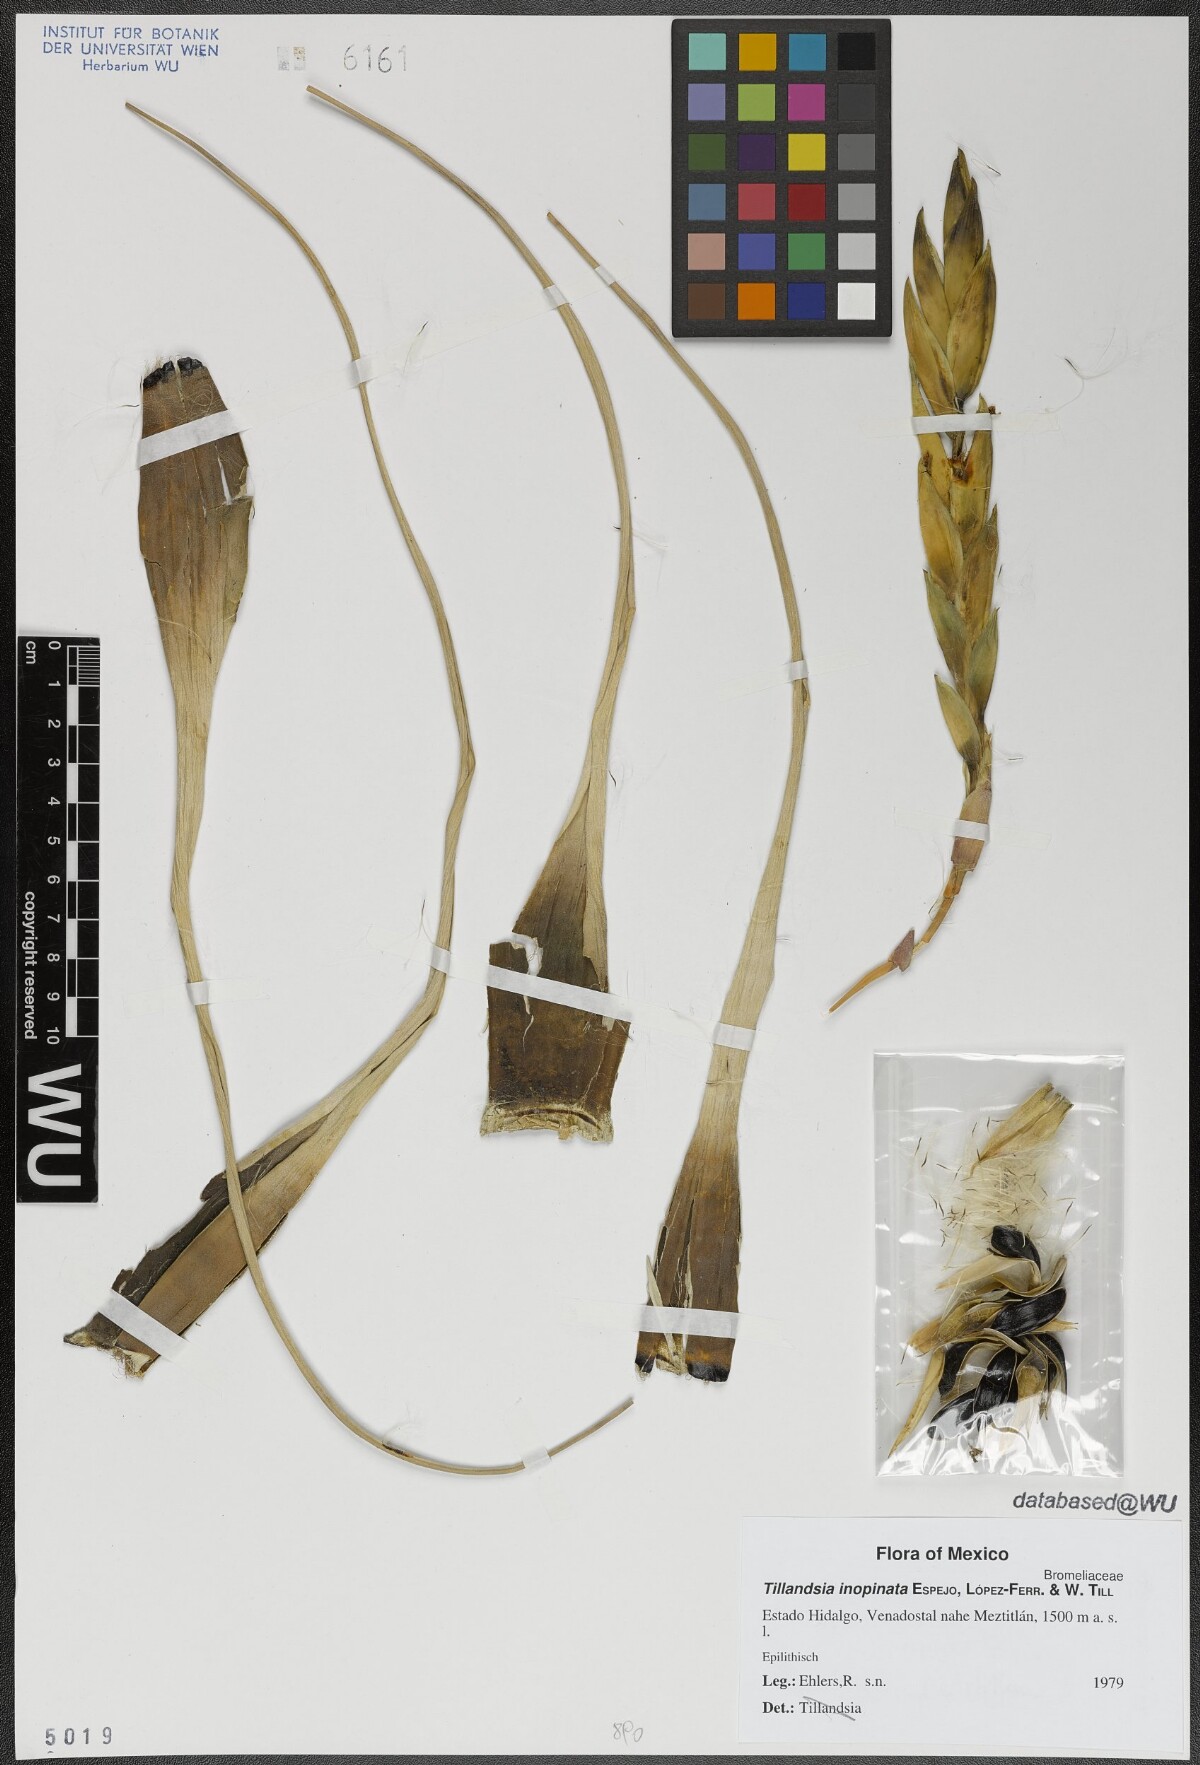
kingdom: Plantae
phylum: Tracheophyta
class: Liliopsida
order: Poales
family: Bromeliaceae
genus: Tillandsia
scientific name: Tillandsia inopinata
